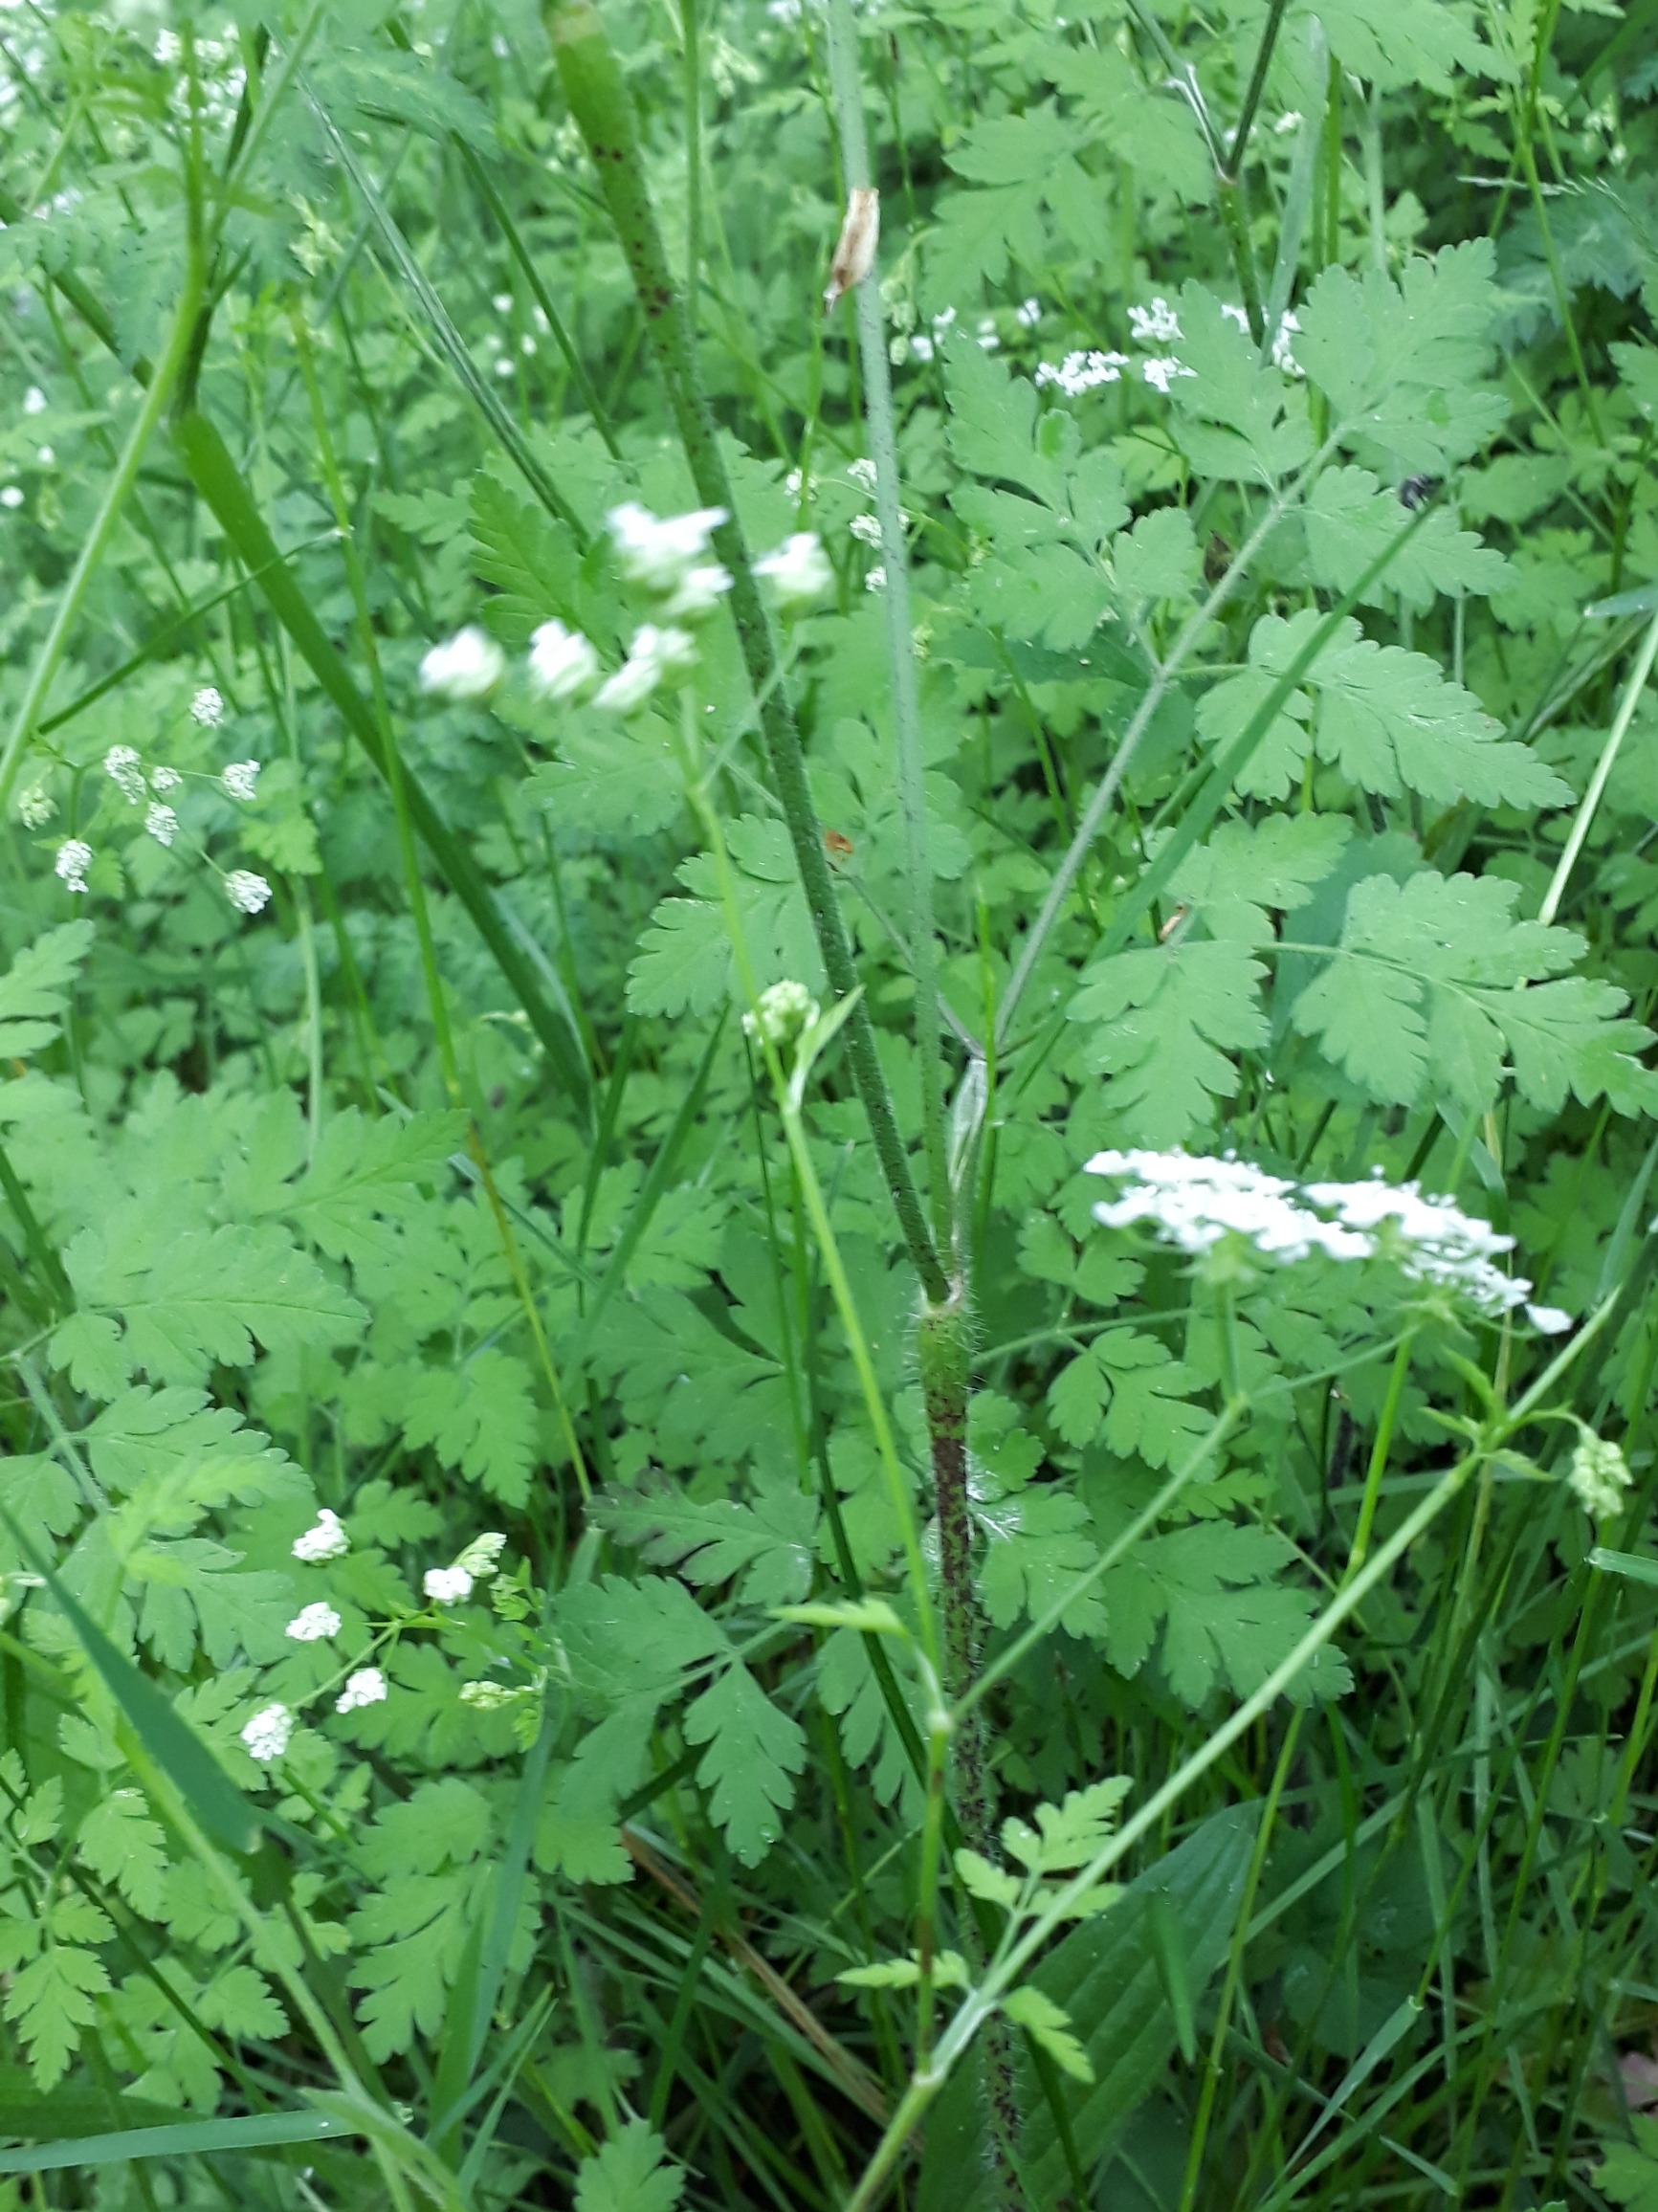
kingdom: Plantae
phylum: Tracheophyta
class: Magnoliopsida
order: Apiales
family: Apiaceae
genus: Chaerophyllum
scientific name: Chaerophyllum temulum
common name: Almindelig hulsvøb
